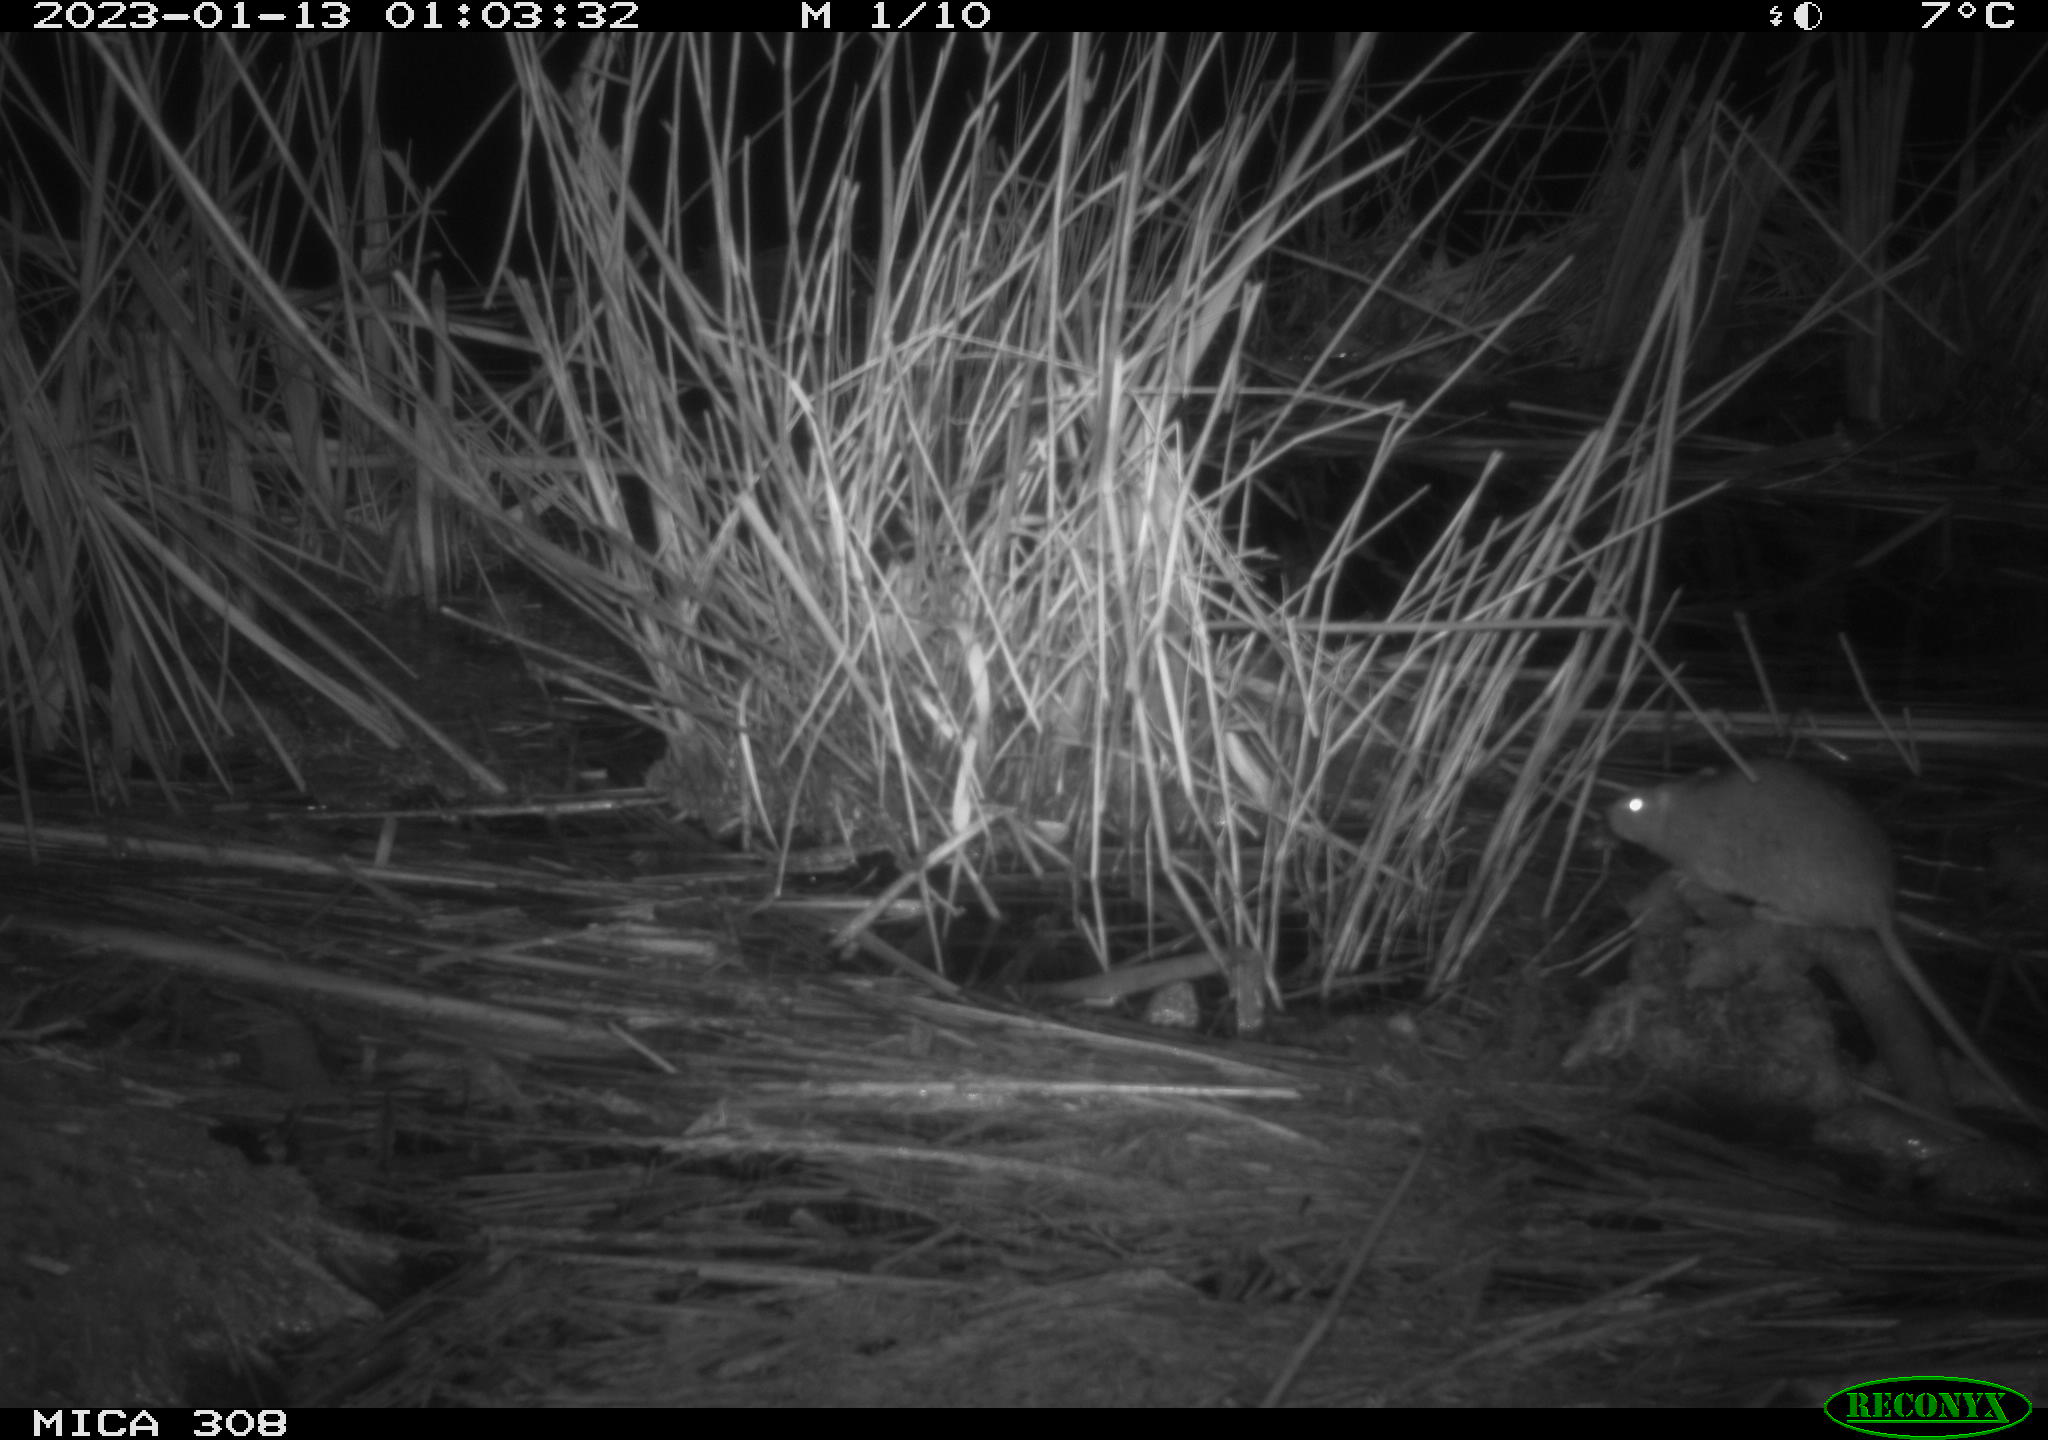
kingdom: Animalia
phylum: Chordata
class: Mammalia
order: Rodentia
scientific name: Rodentia
